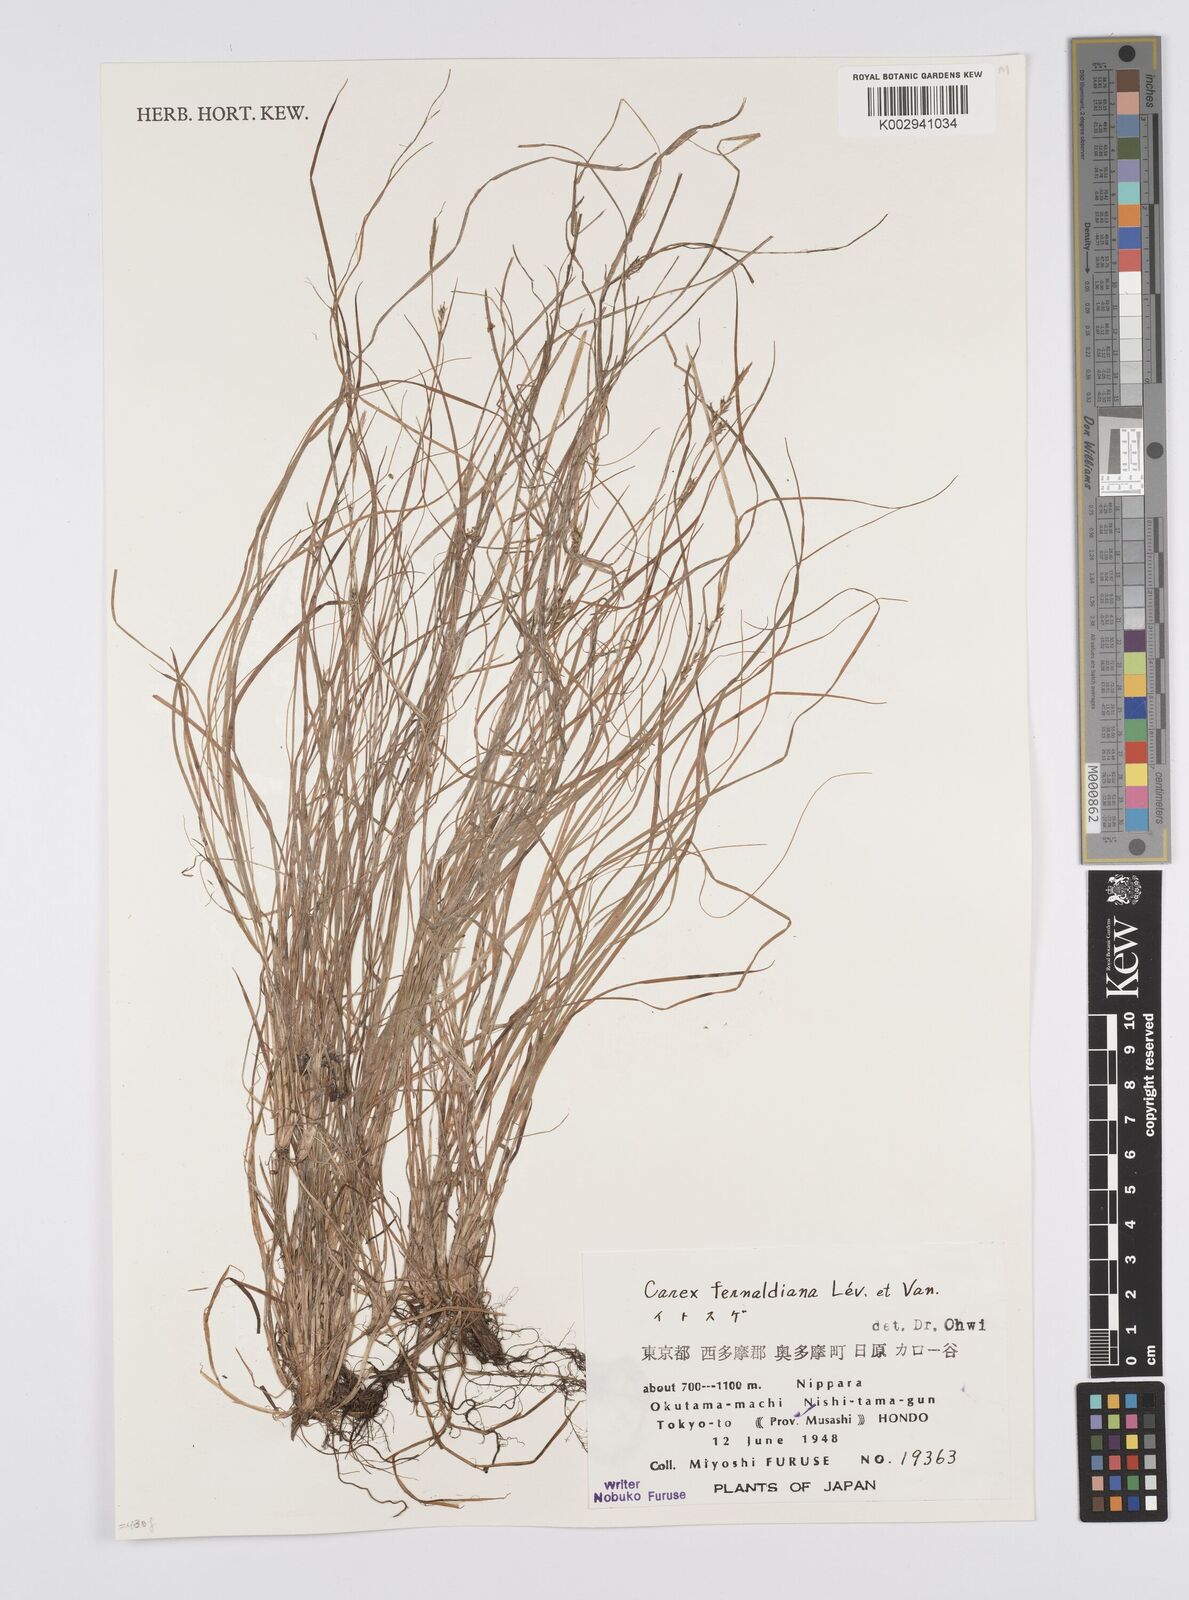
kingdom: Plantae
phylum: Tracheophyta
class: Liliopsida
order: Poales
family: Cyperaceae
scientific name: Cyperaceae
